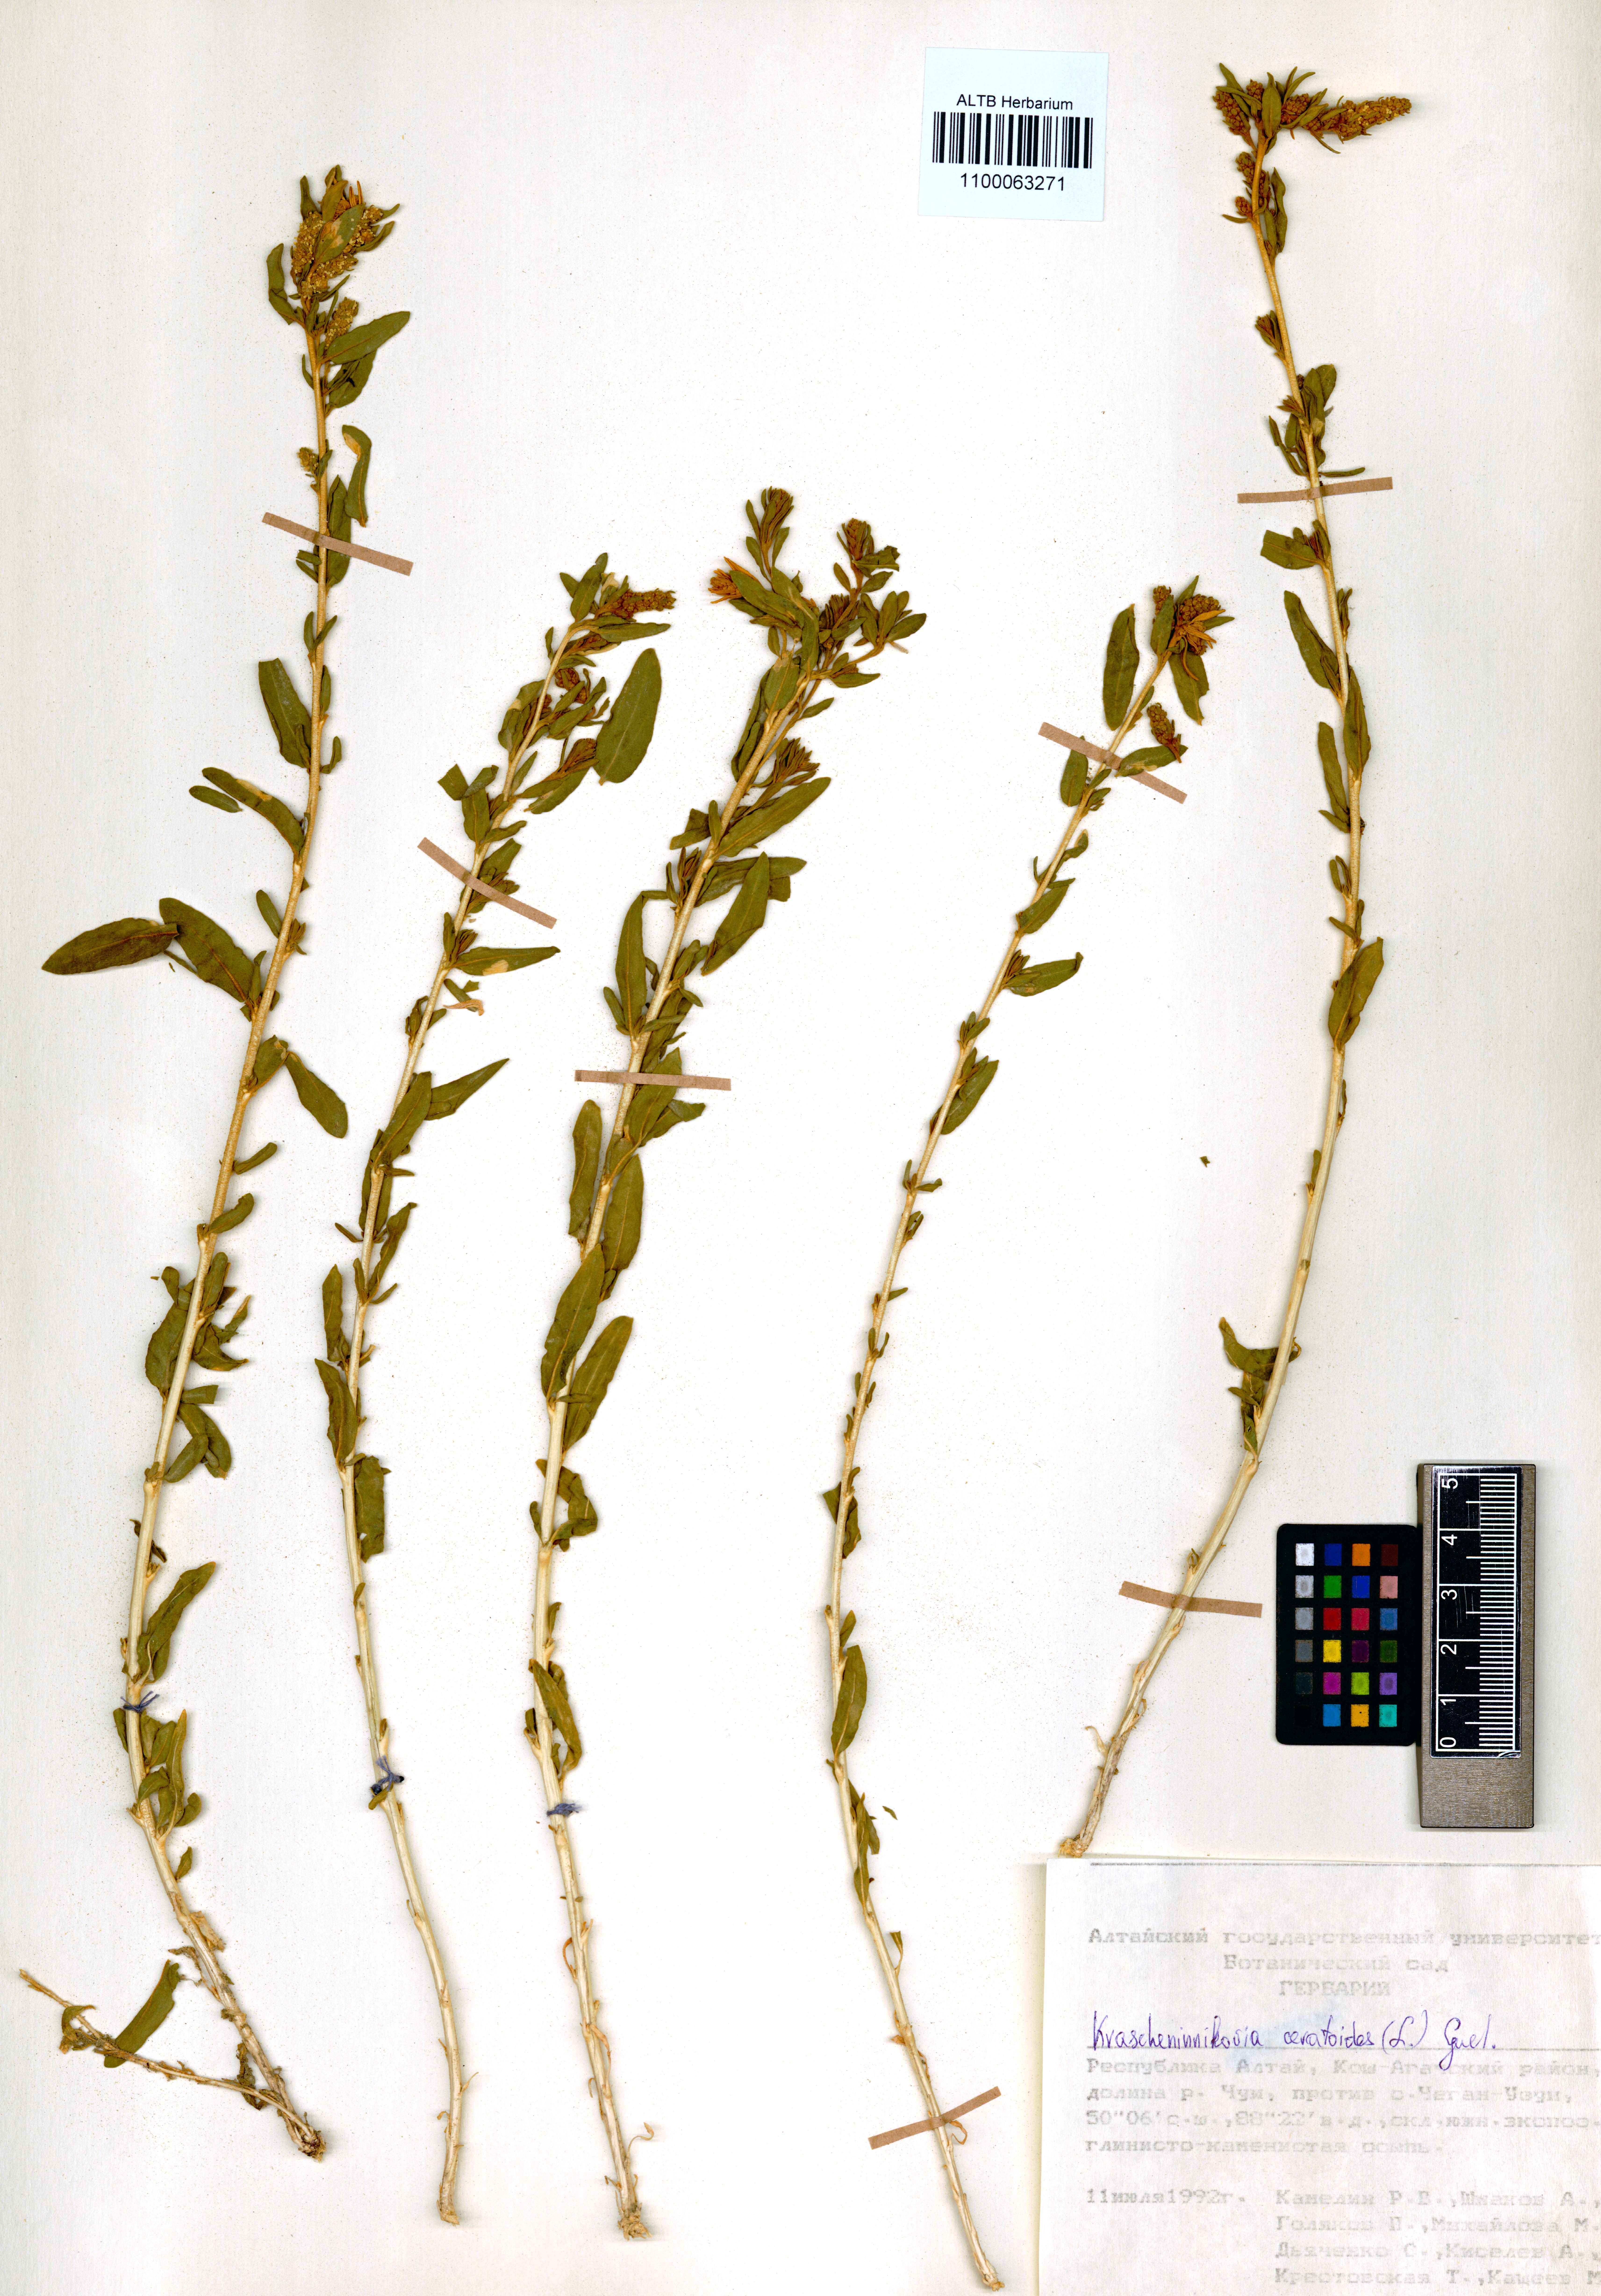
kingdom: Plantae
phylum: Tracheophyta
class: Magnoliopsida
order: Caryophyllales
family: Amaranthaceae
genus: Krascheninnikovia
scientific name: Krascheninnikovia ceratoides
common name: Pamirian winterfat
